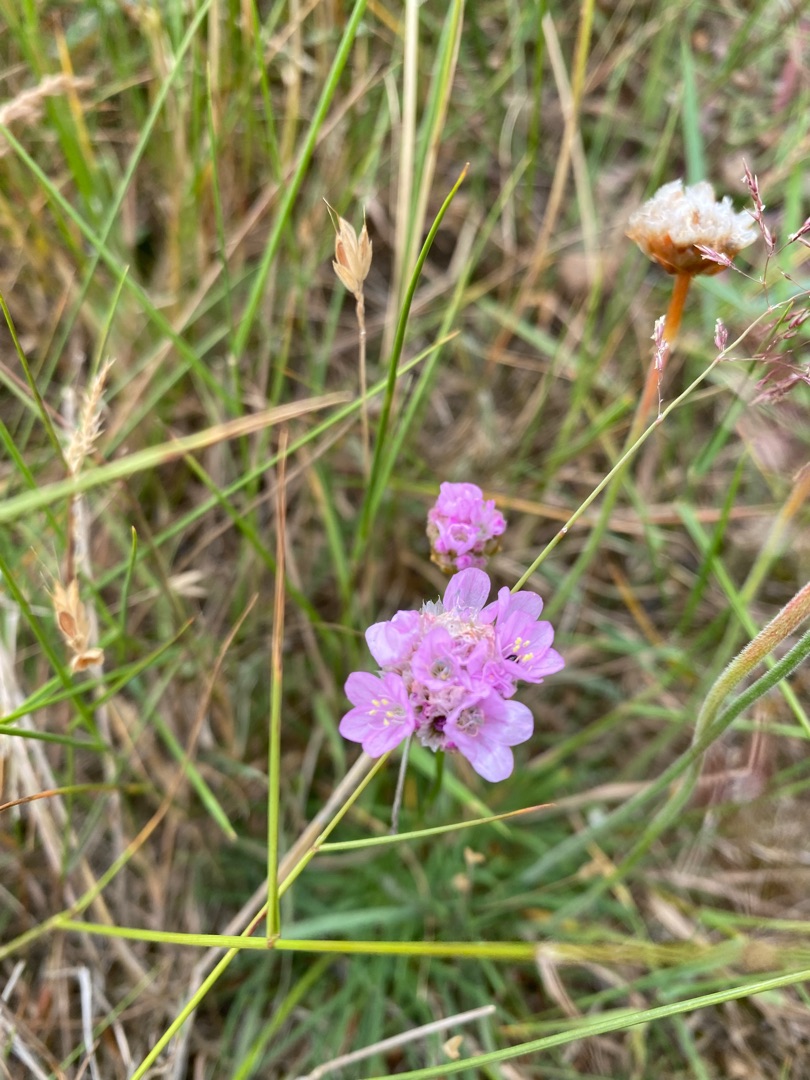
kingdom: Plantae
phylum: Tracheophyta
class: Magnoliopsida
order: Caryophyllales
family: Plumbaginaceae
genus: Armeria
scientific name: Armeria maritima
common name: Engelskgræs
